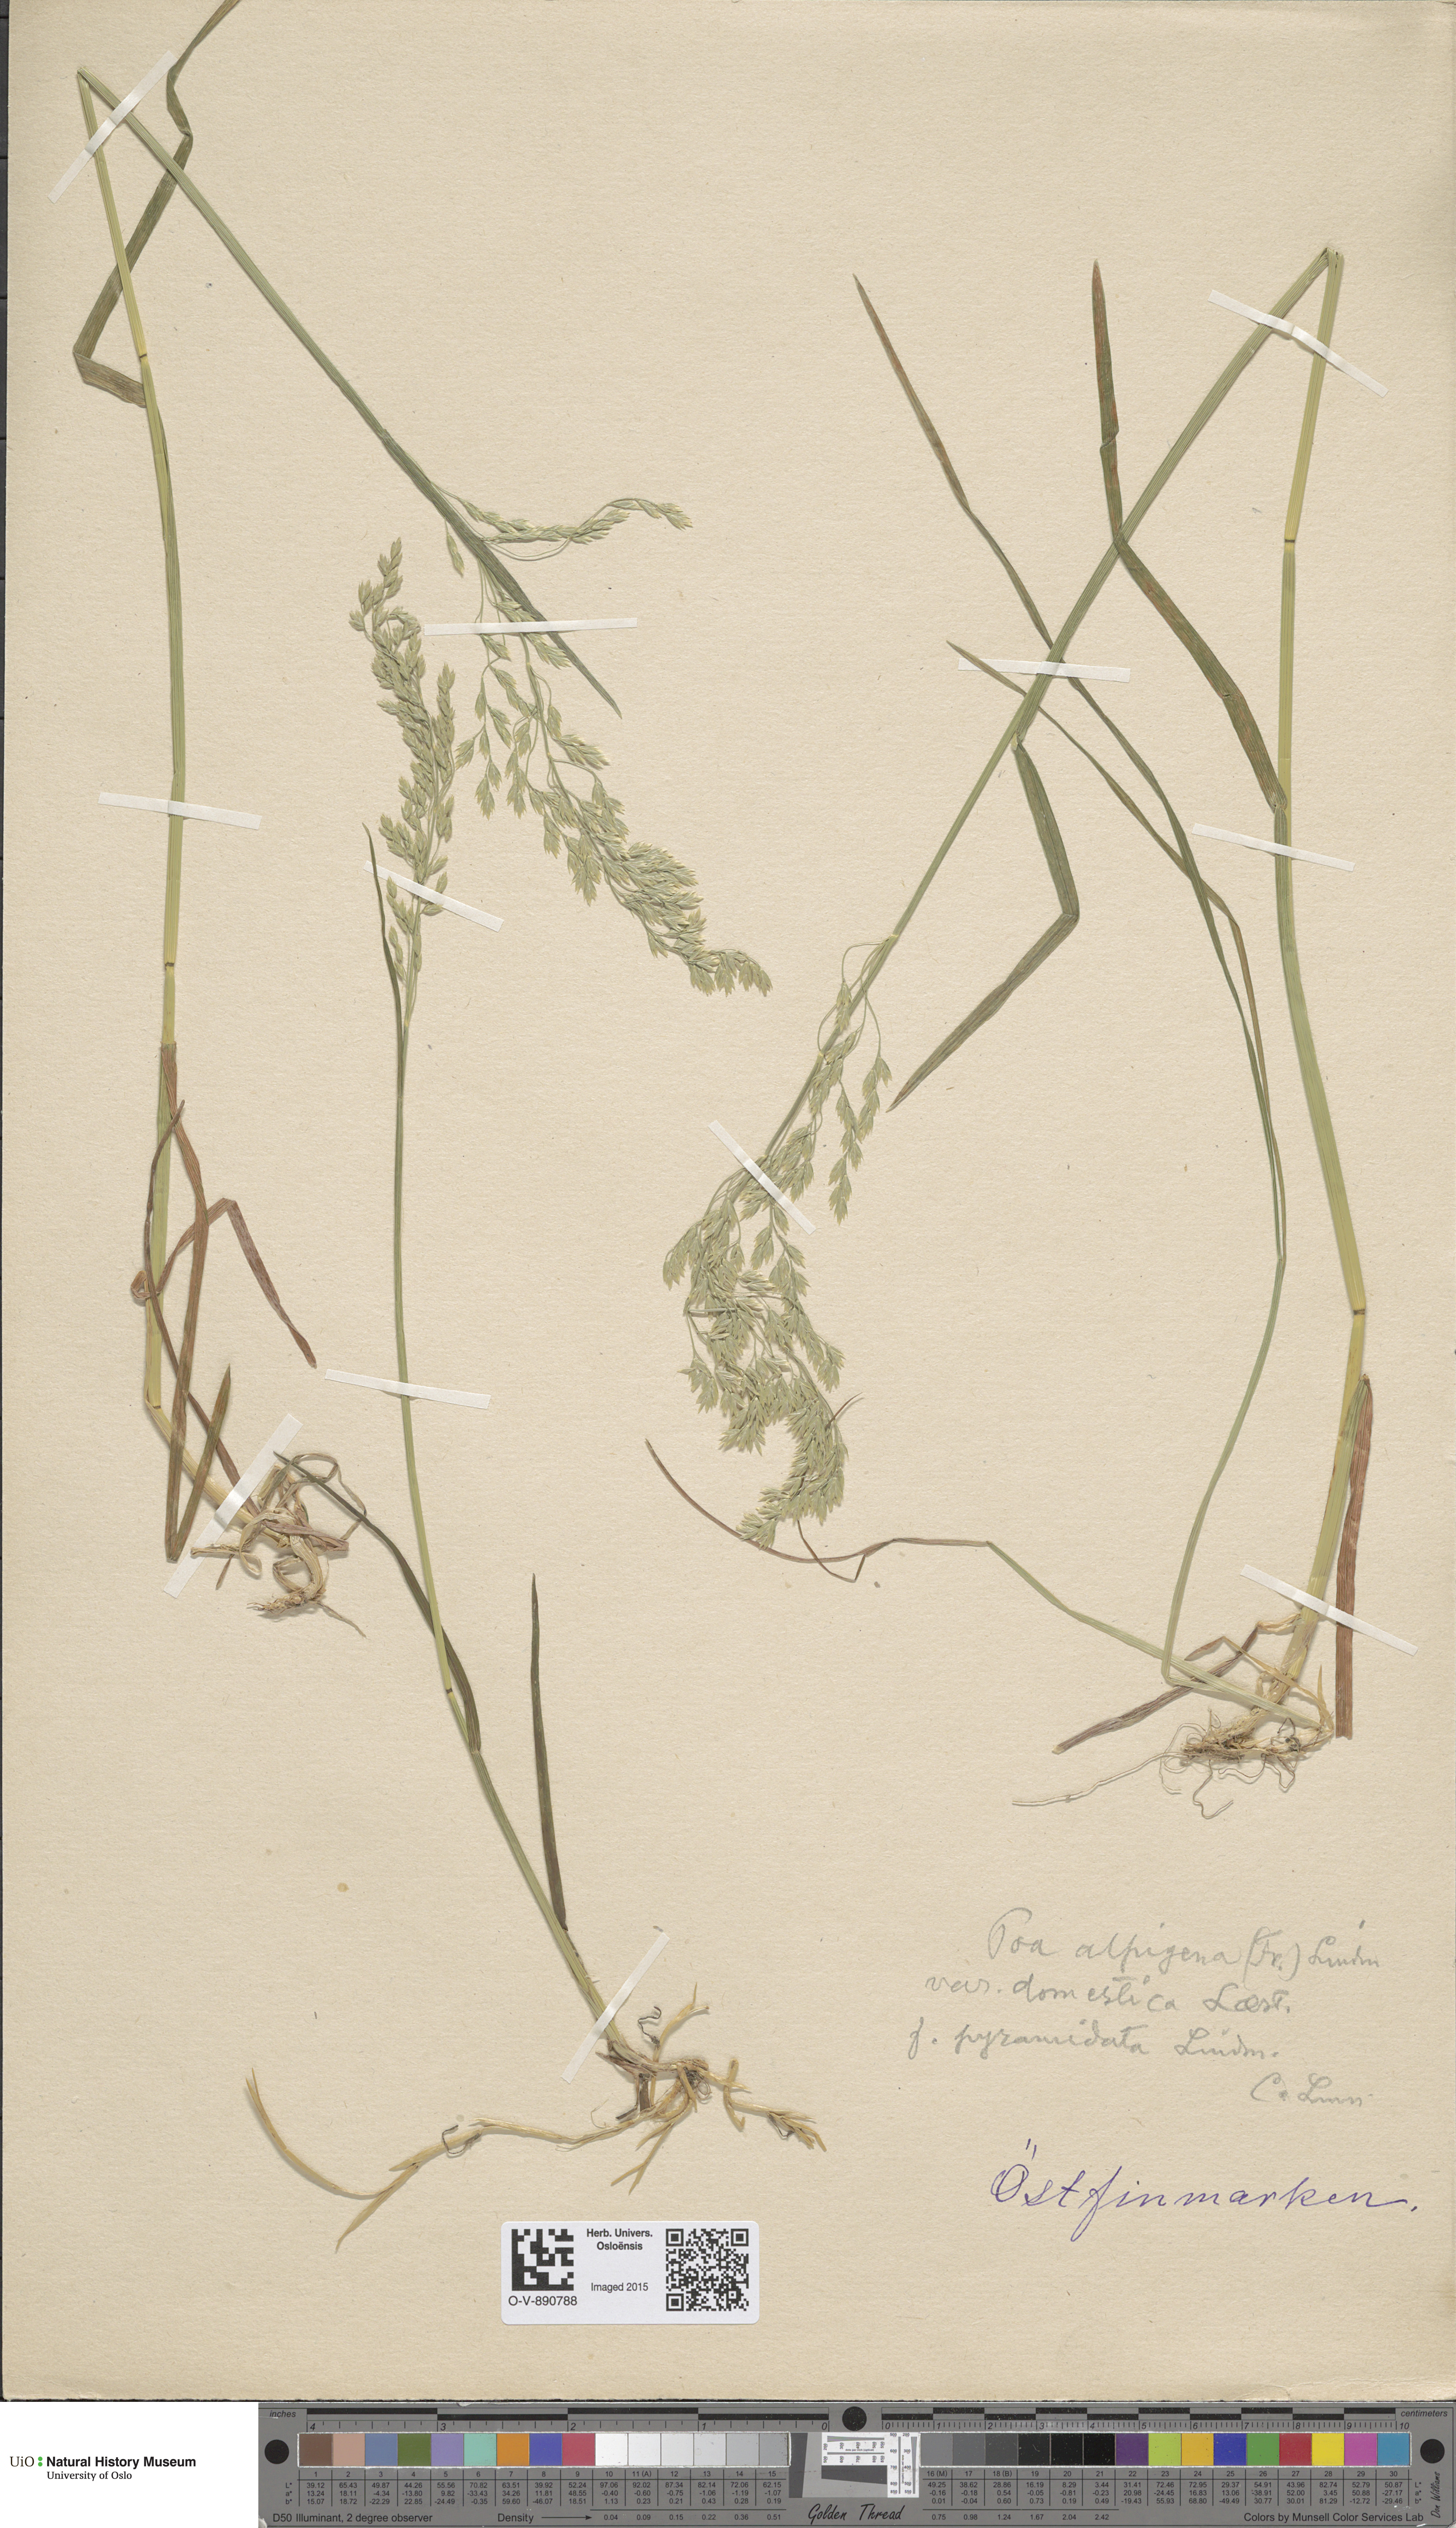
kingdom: Plantae
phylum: Tracheophyta
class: Liliopsida
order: Poales
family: Poaceae
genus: Poa
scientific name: Poa pratensis
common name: Kentucky bluegrass
